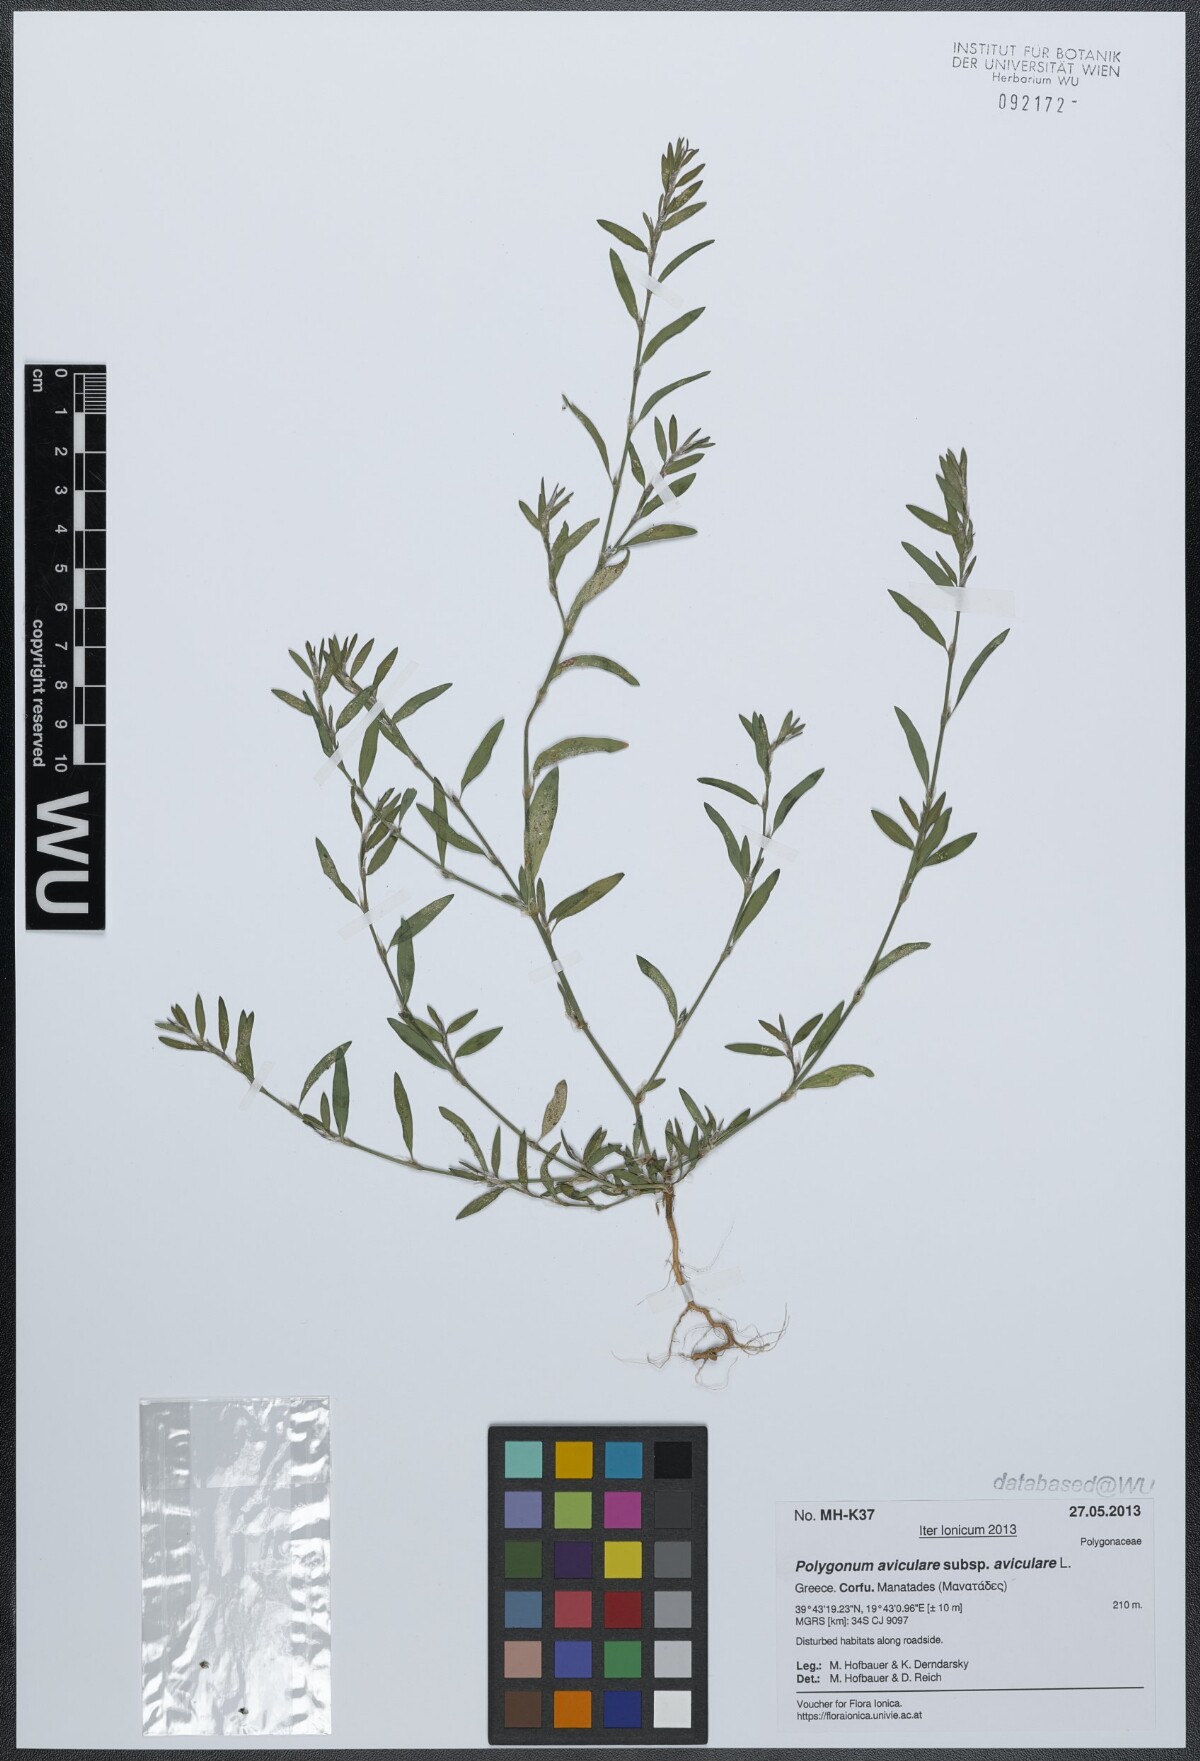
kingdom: Plantae
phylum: Tracheophyta
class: Magnoliopsida
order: Caryophyllales
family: Polygonaceae
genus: Polygonum
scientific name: Polygonum aviculare
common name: Prostrate knotweed
